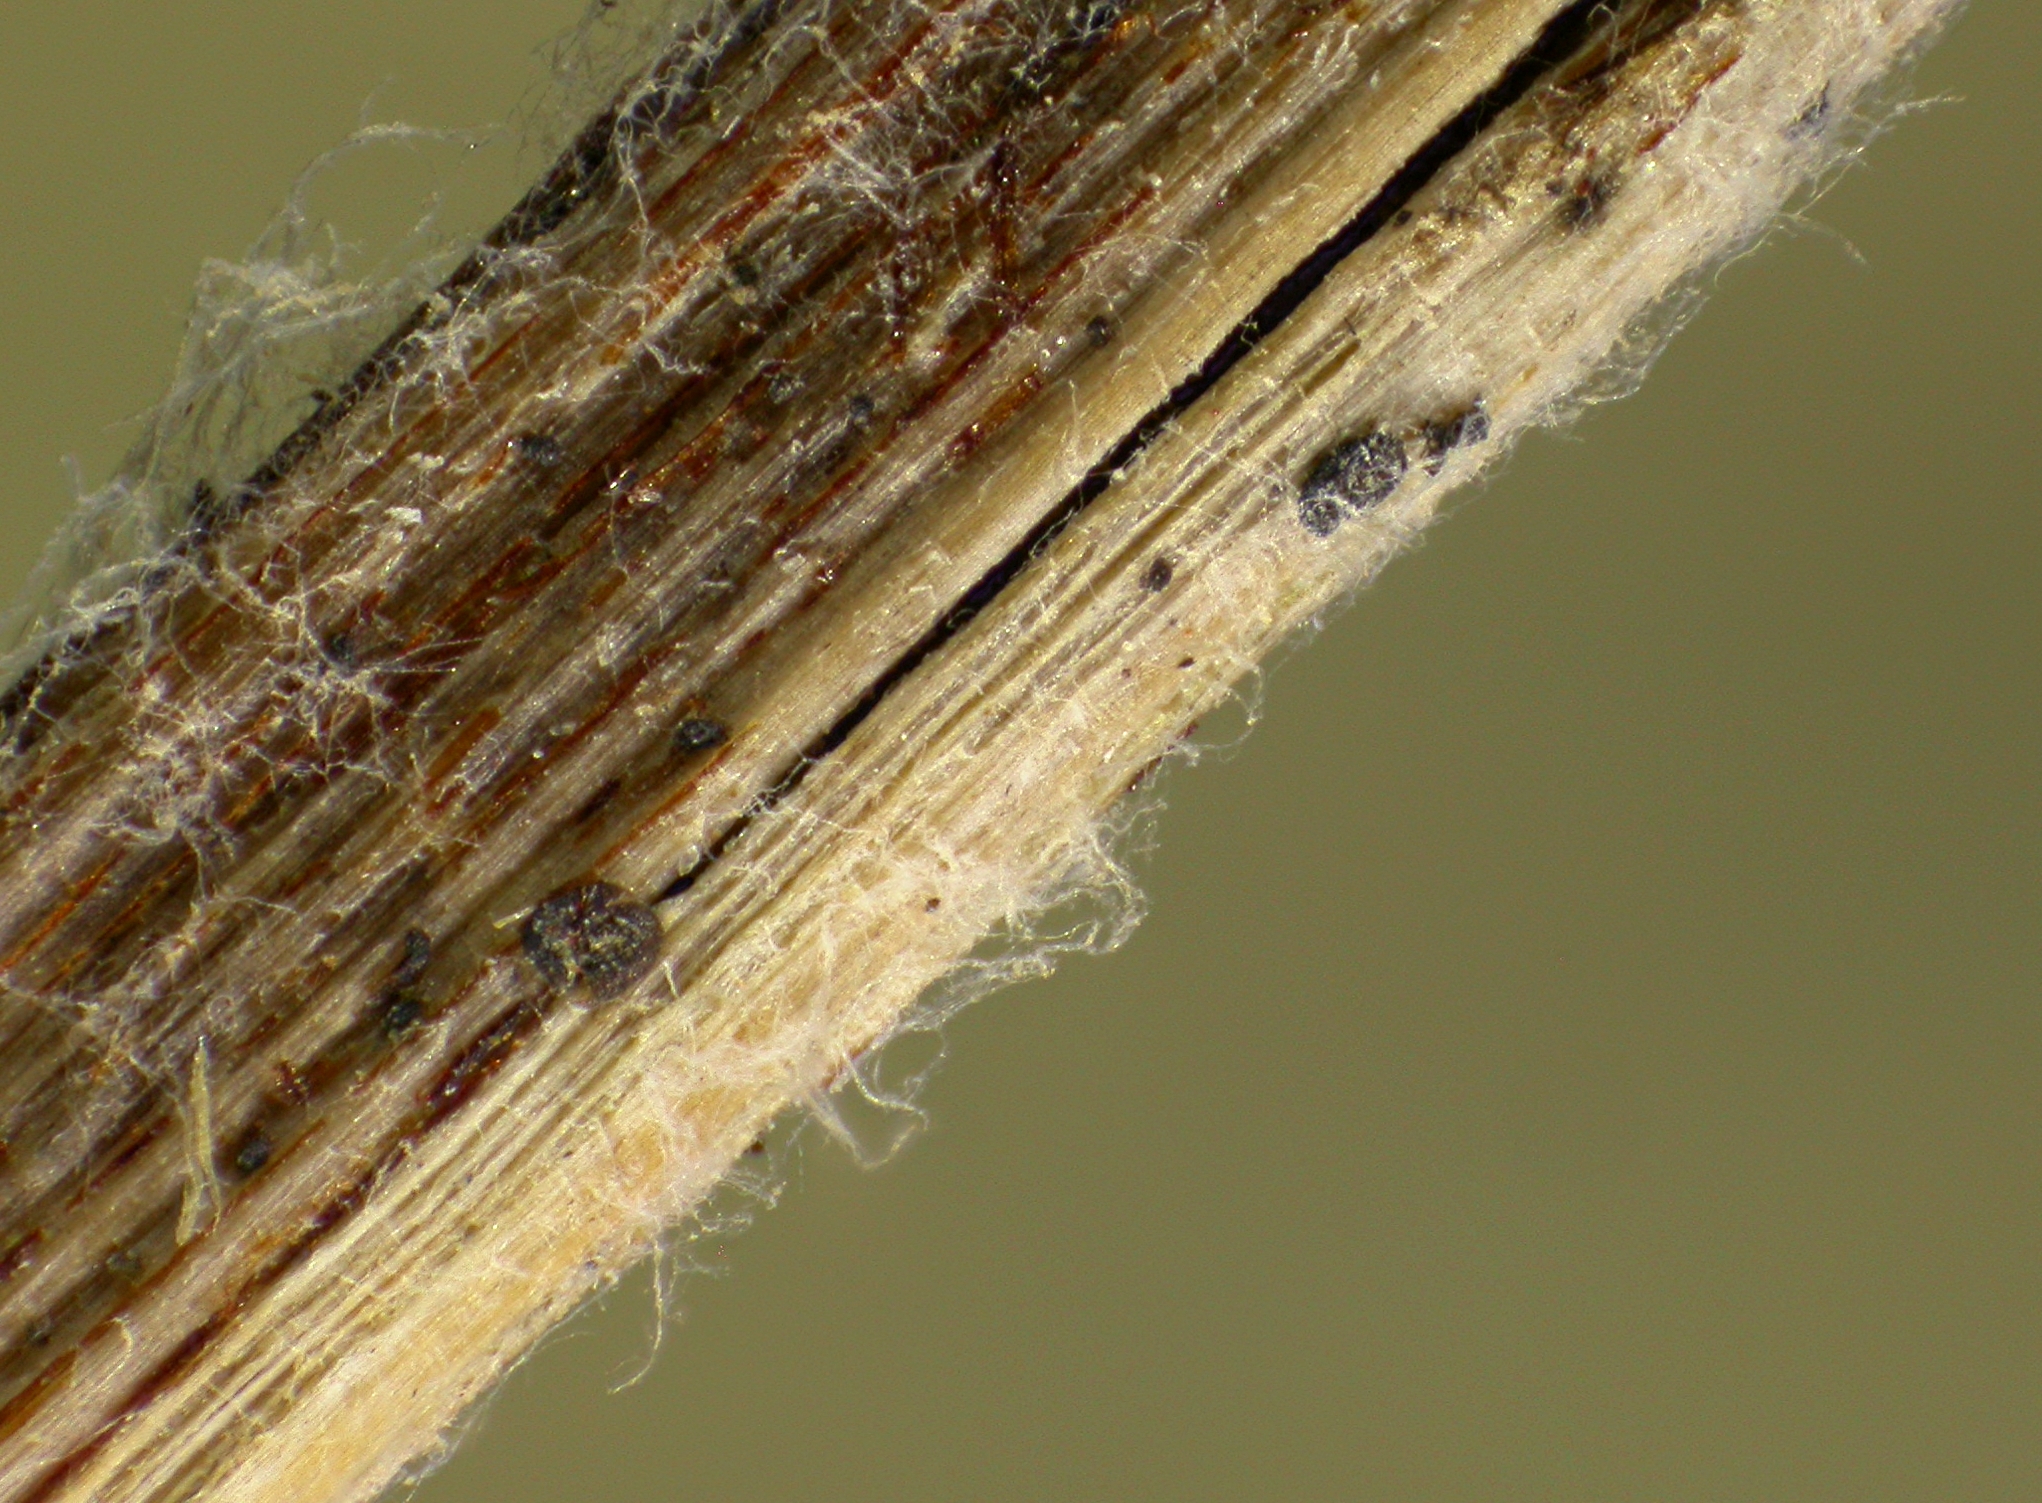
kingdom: Fungi
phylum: Ascomycota
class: Leotiomycetes
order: Helotiales
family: Hyaloscyphaceae
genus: Urceolella
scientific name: Urceolella rufula
